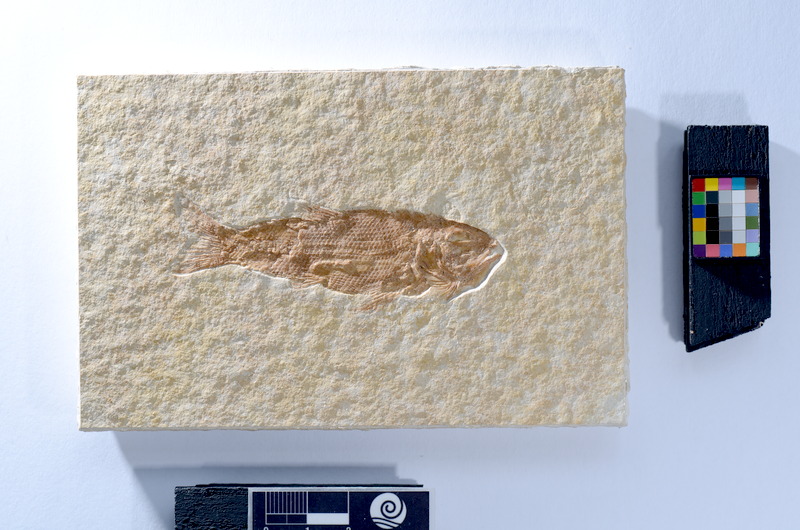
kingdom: Animalia
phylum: Chordata
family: Pholidophoridae
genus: Pholidophorus
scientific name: Pholidophorus
